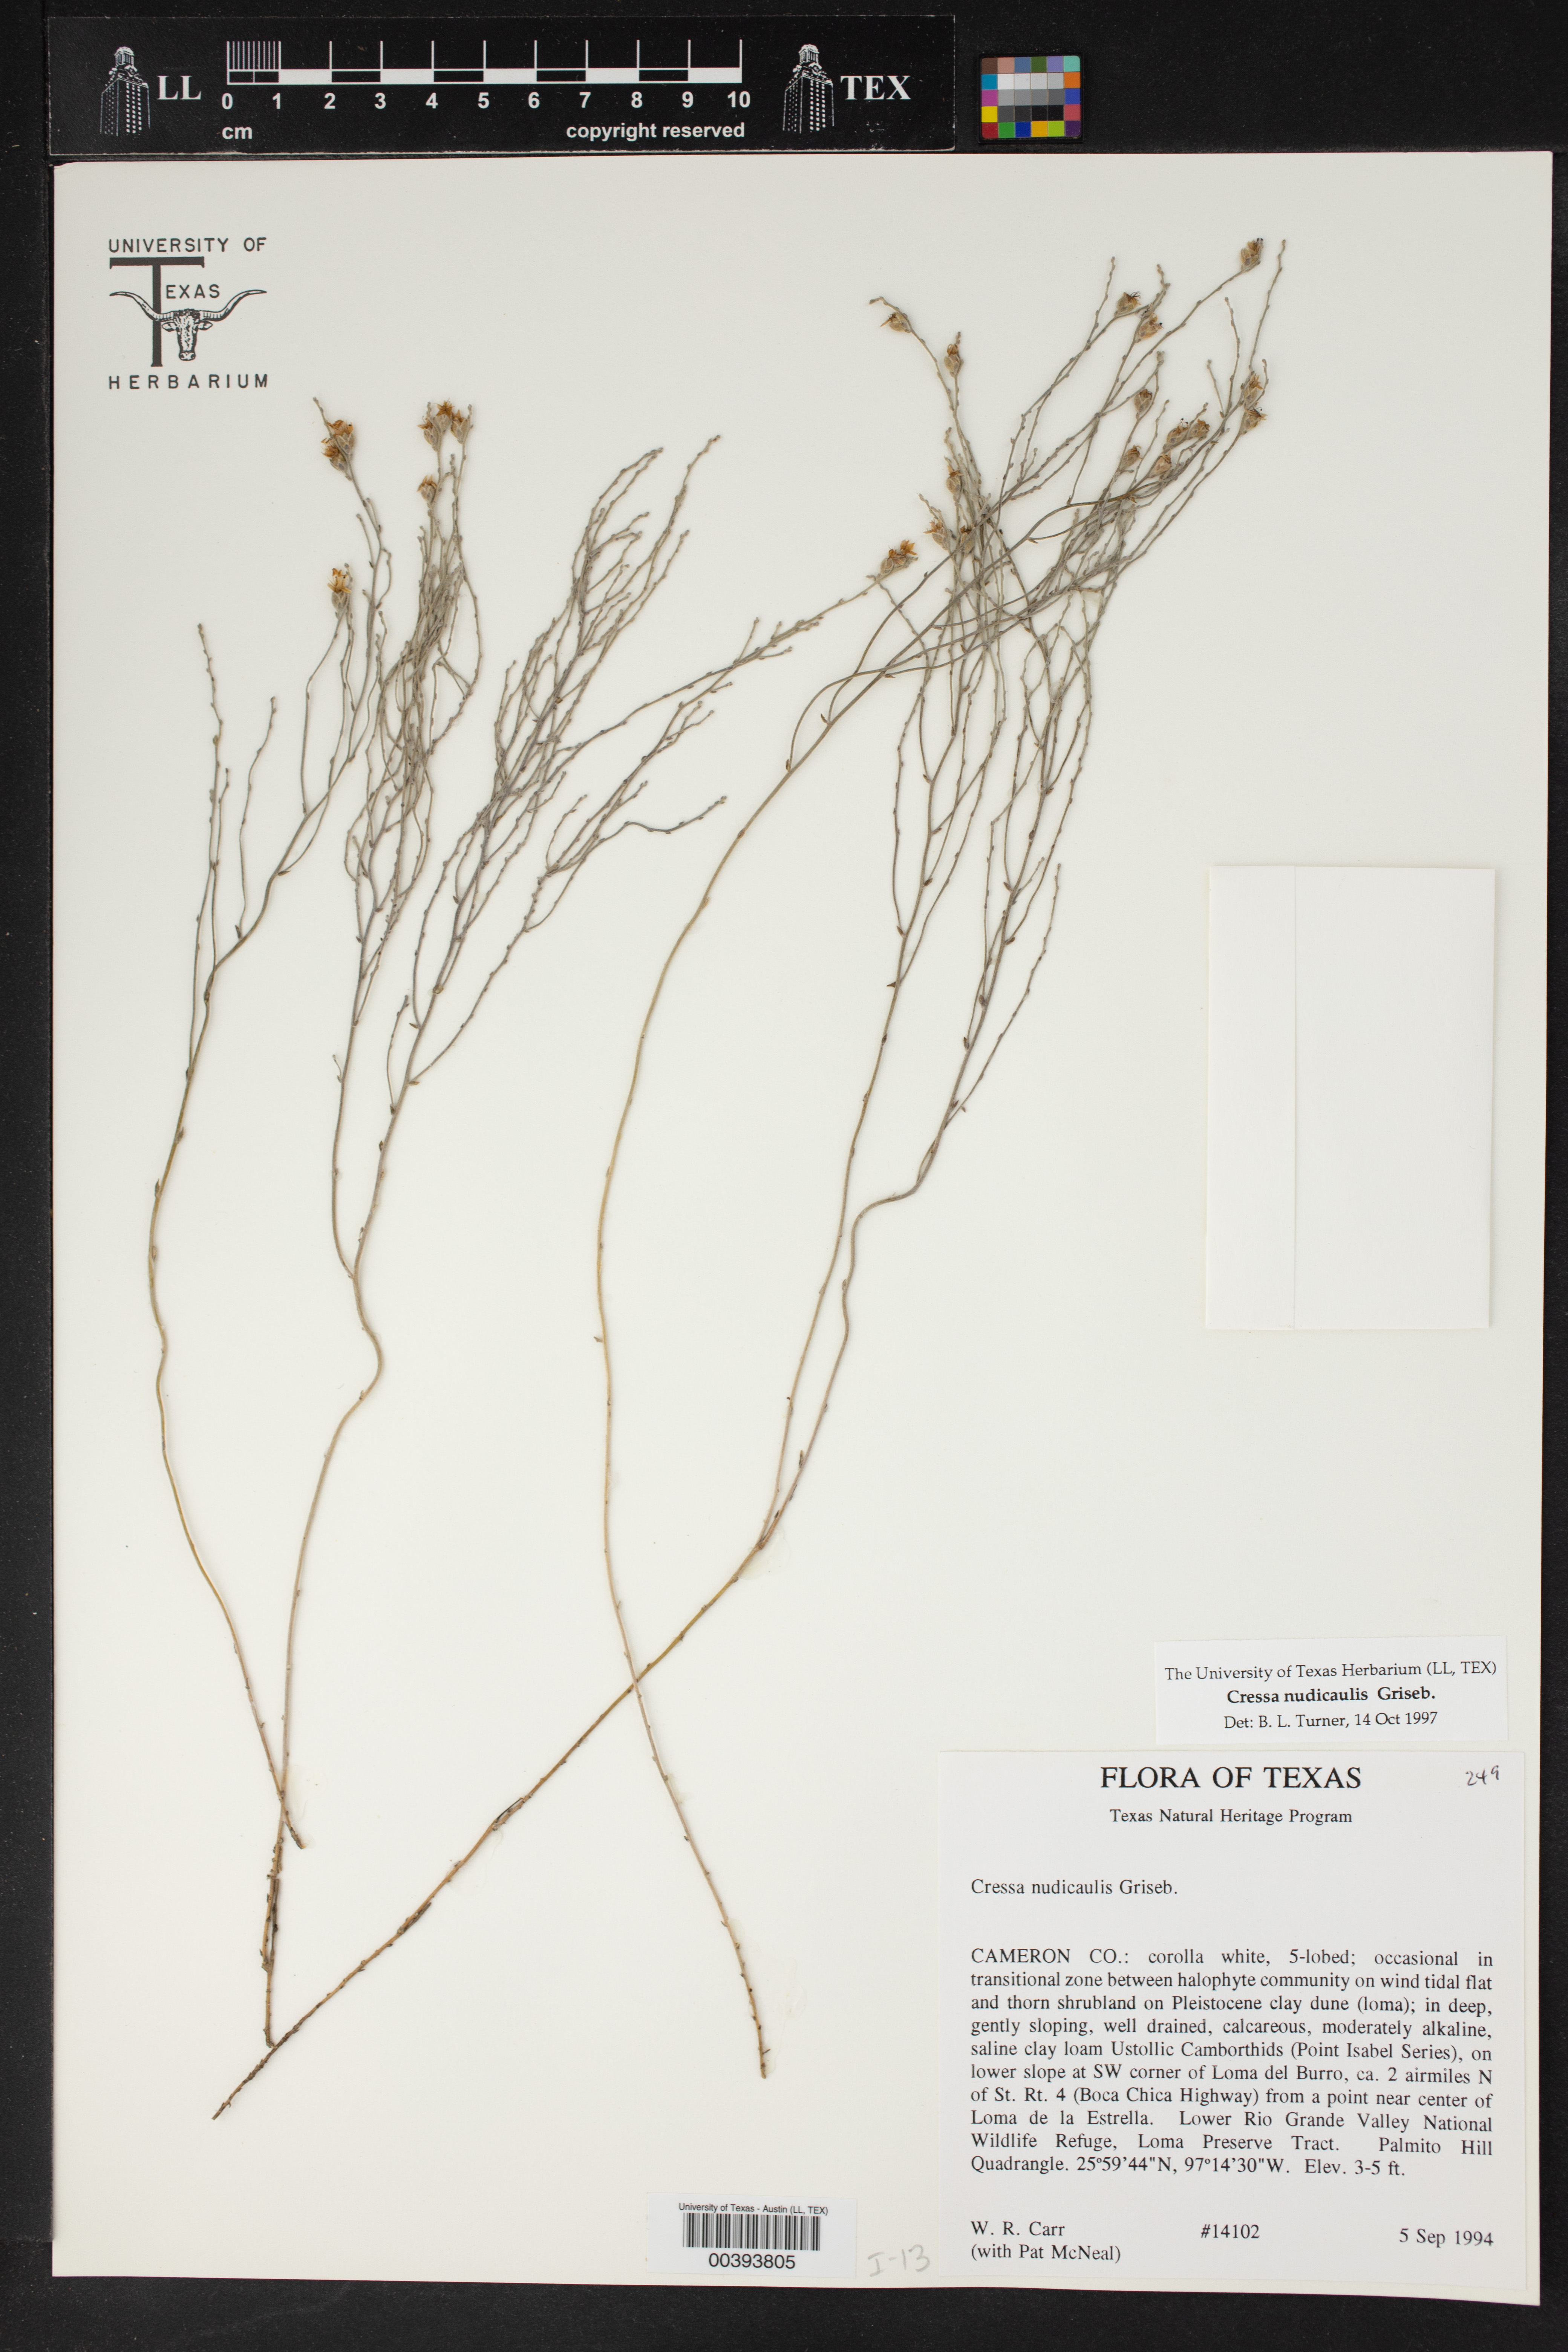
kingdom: Plantae
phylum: Tracheophyta
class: Magnoliopsida
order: Solanales
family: Convolvulaceae
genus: Cressa
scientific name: Cressa nudicaulis
